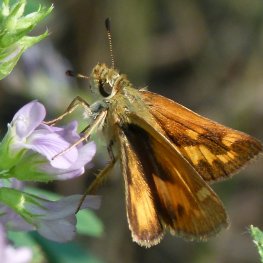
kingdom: Animalia
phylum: Arthropoda
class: Insecta
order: Lepidoptera
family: Hesperiidae
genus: Ochlodes
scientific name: Ochlodes sylvanoides
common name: Woodland Skipper
